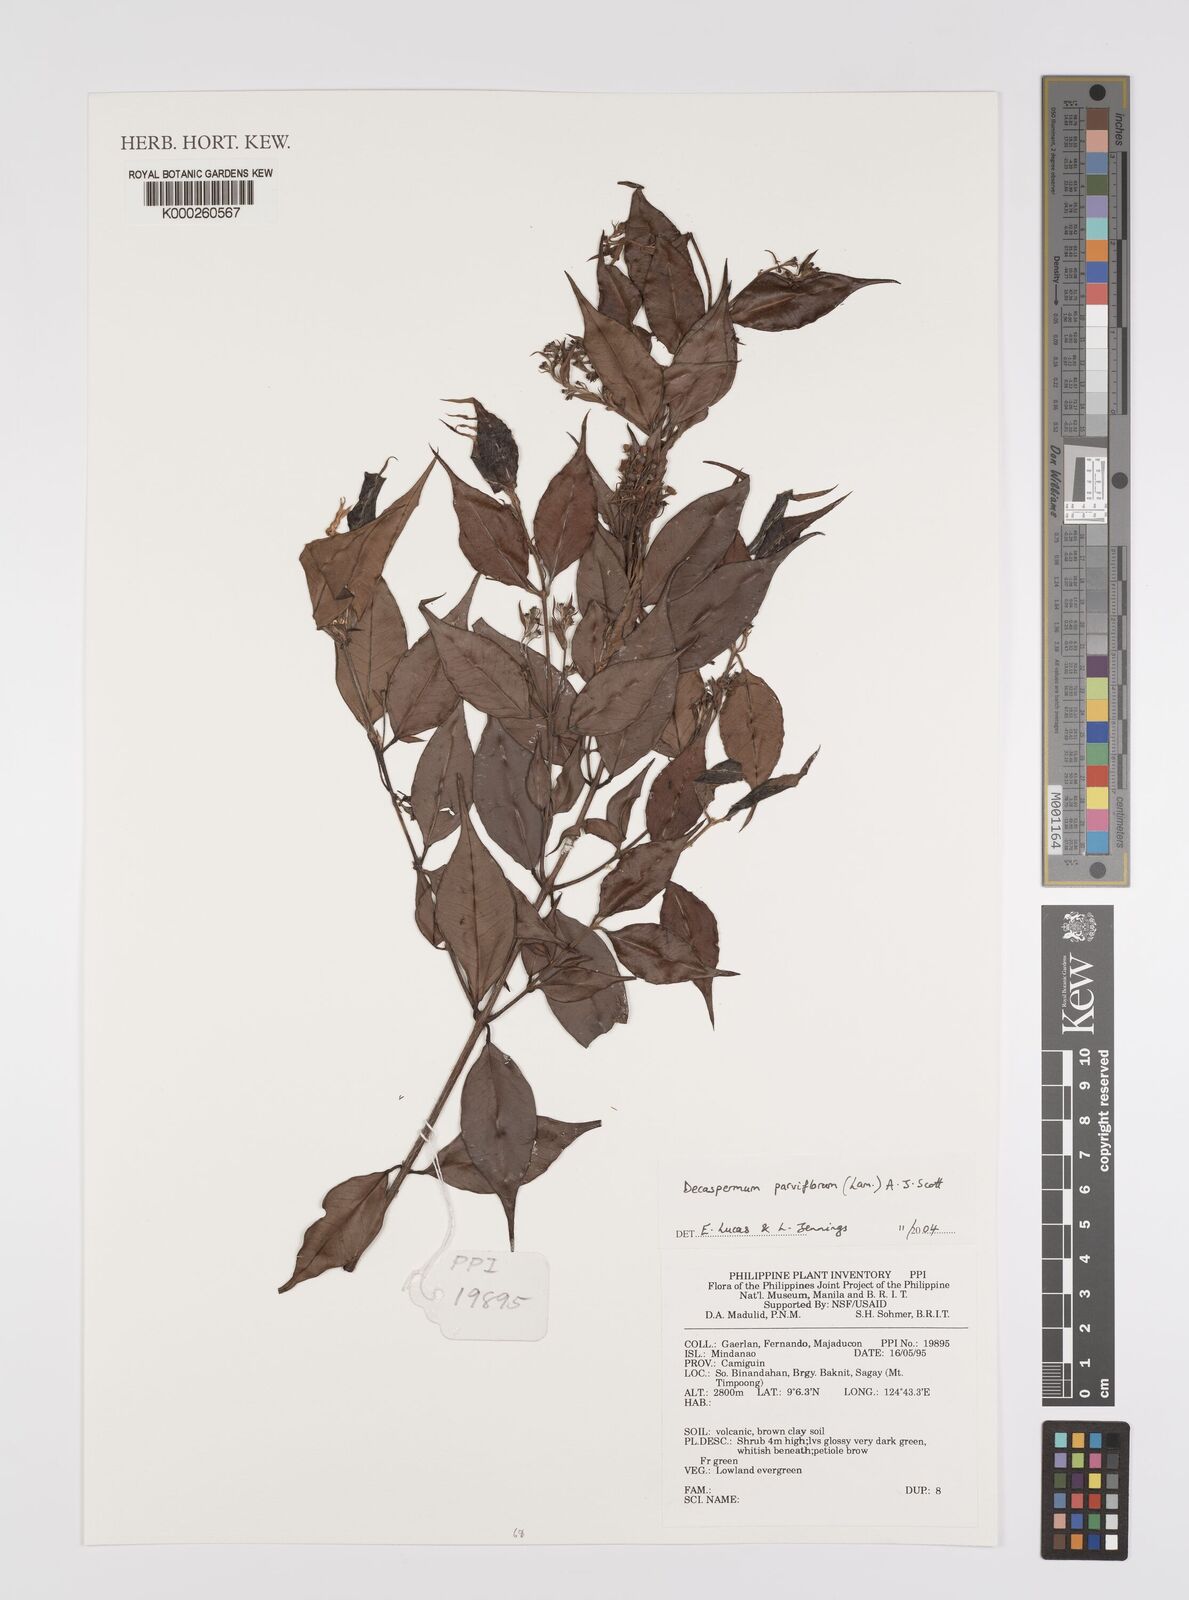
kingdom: Plantae
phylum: Tracheophyta
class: Magnoliopsida
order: Myrtales
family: Myrtaceae
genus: Decaspermum
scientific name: Decaspermum parviflorum
